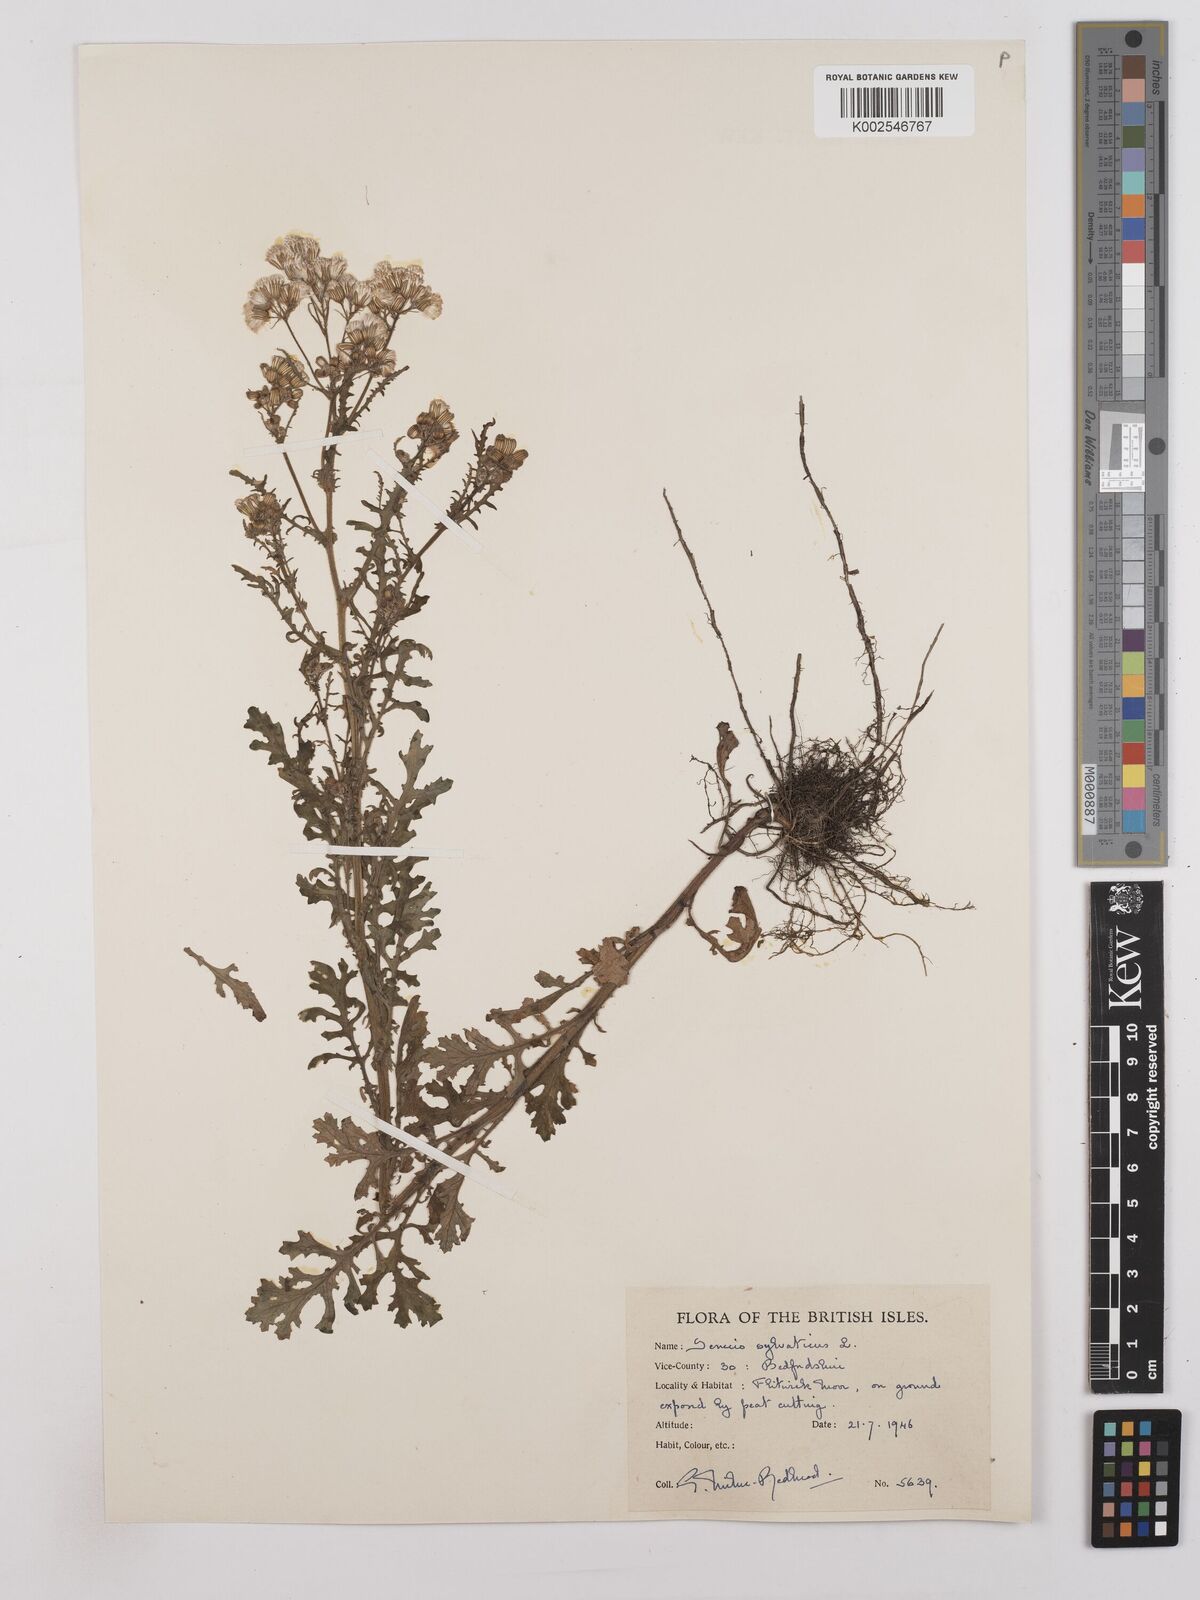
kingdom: Plantae
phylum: Tracheophyta
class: Magnoliopsida
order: Asterales
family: Asteraceae
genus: Senecio
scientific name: Senecio sylvaticus
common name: Woodland ragwort
